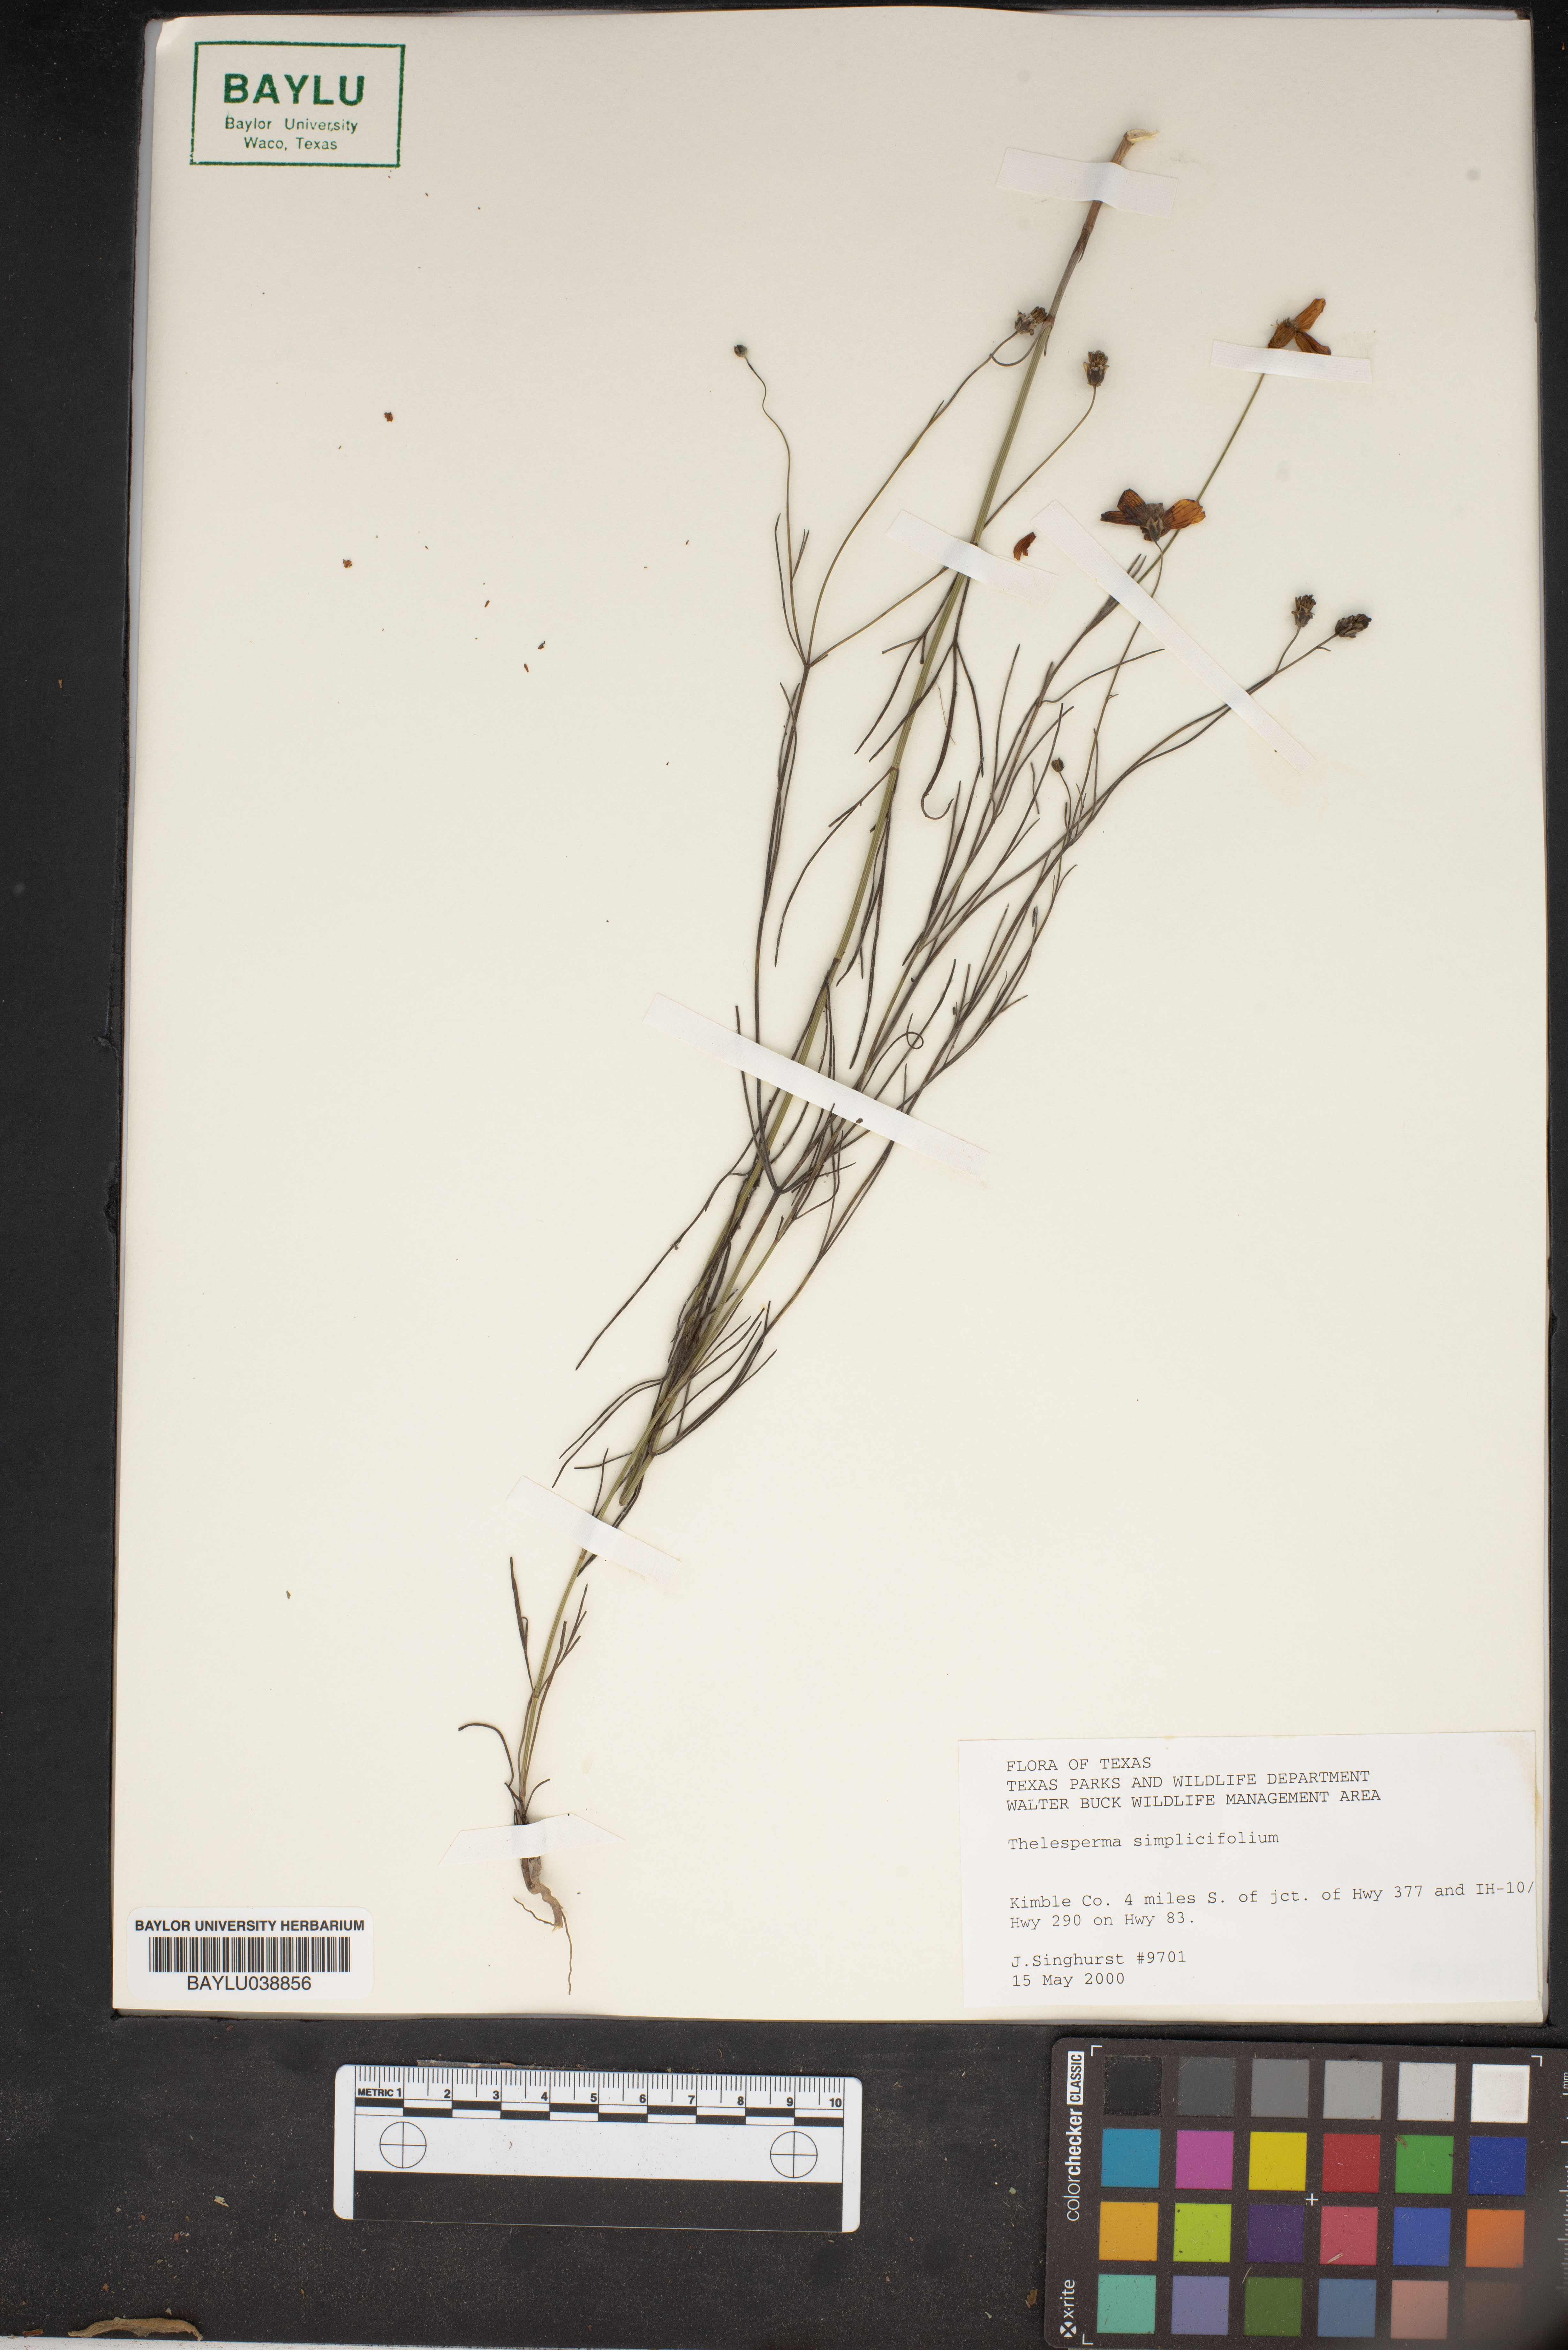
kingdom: Plantae
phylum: Tracheophyta
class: Magnoliopsida
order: Asterales
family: Asteraceae
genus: Thelesperma
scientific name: Thelesperma simplicifolium
